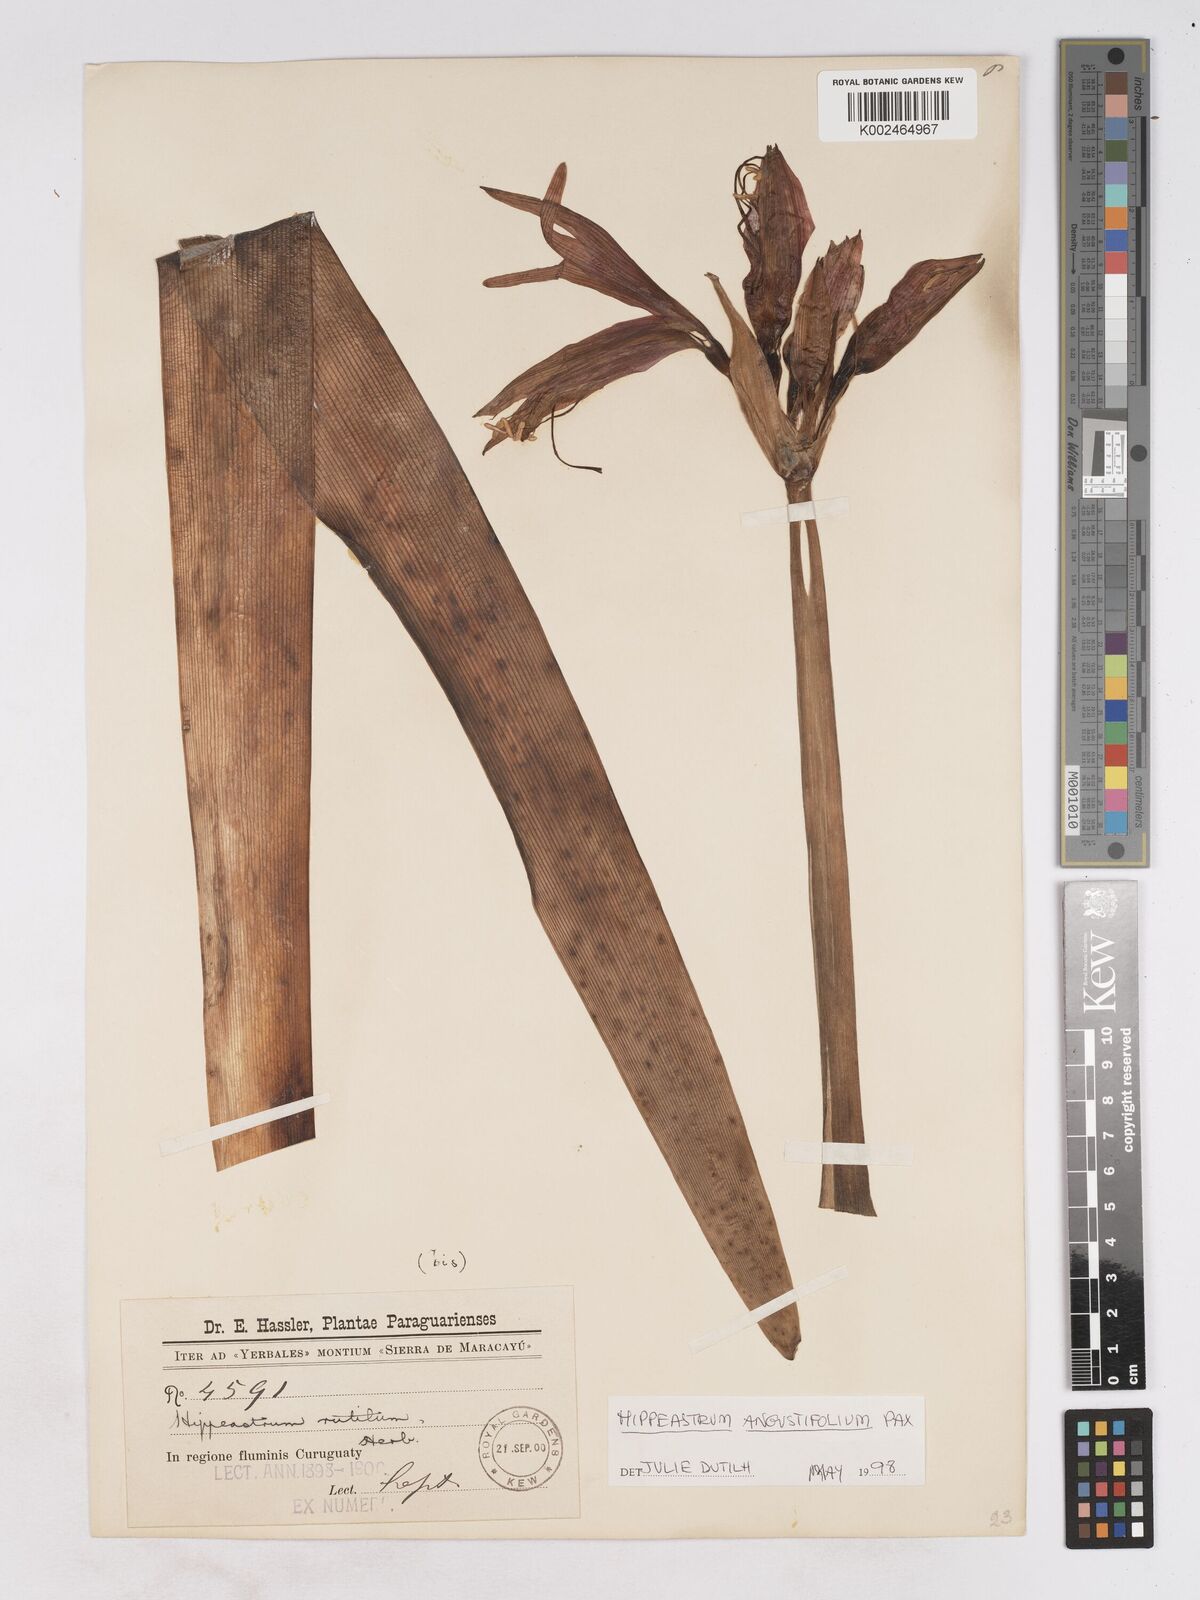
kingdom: Plantae
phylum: Tracheophyta
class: Liliopsida
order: Asparagales
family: Amaryllidaceae
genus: Hippeastrum
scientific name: Hippeastrum angustifolium
